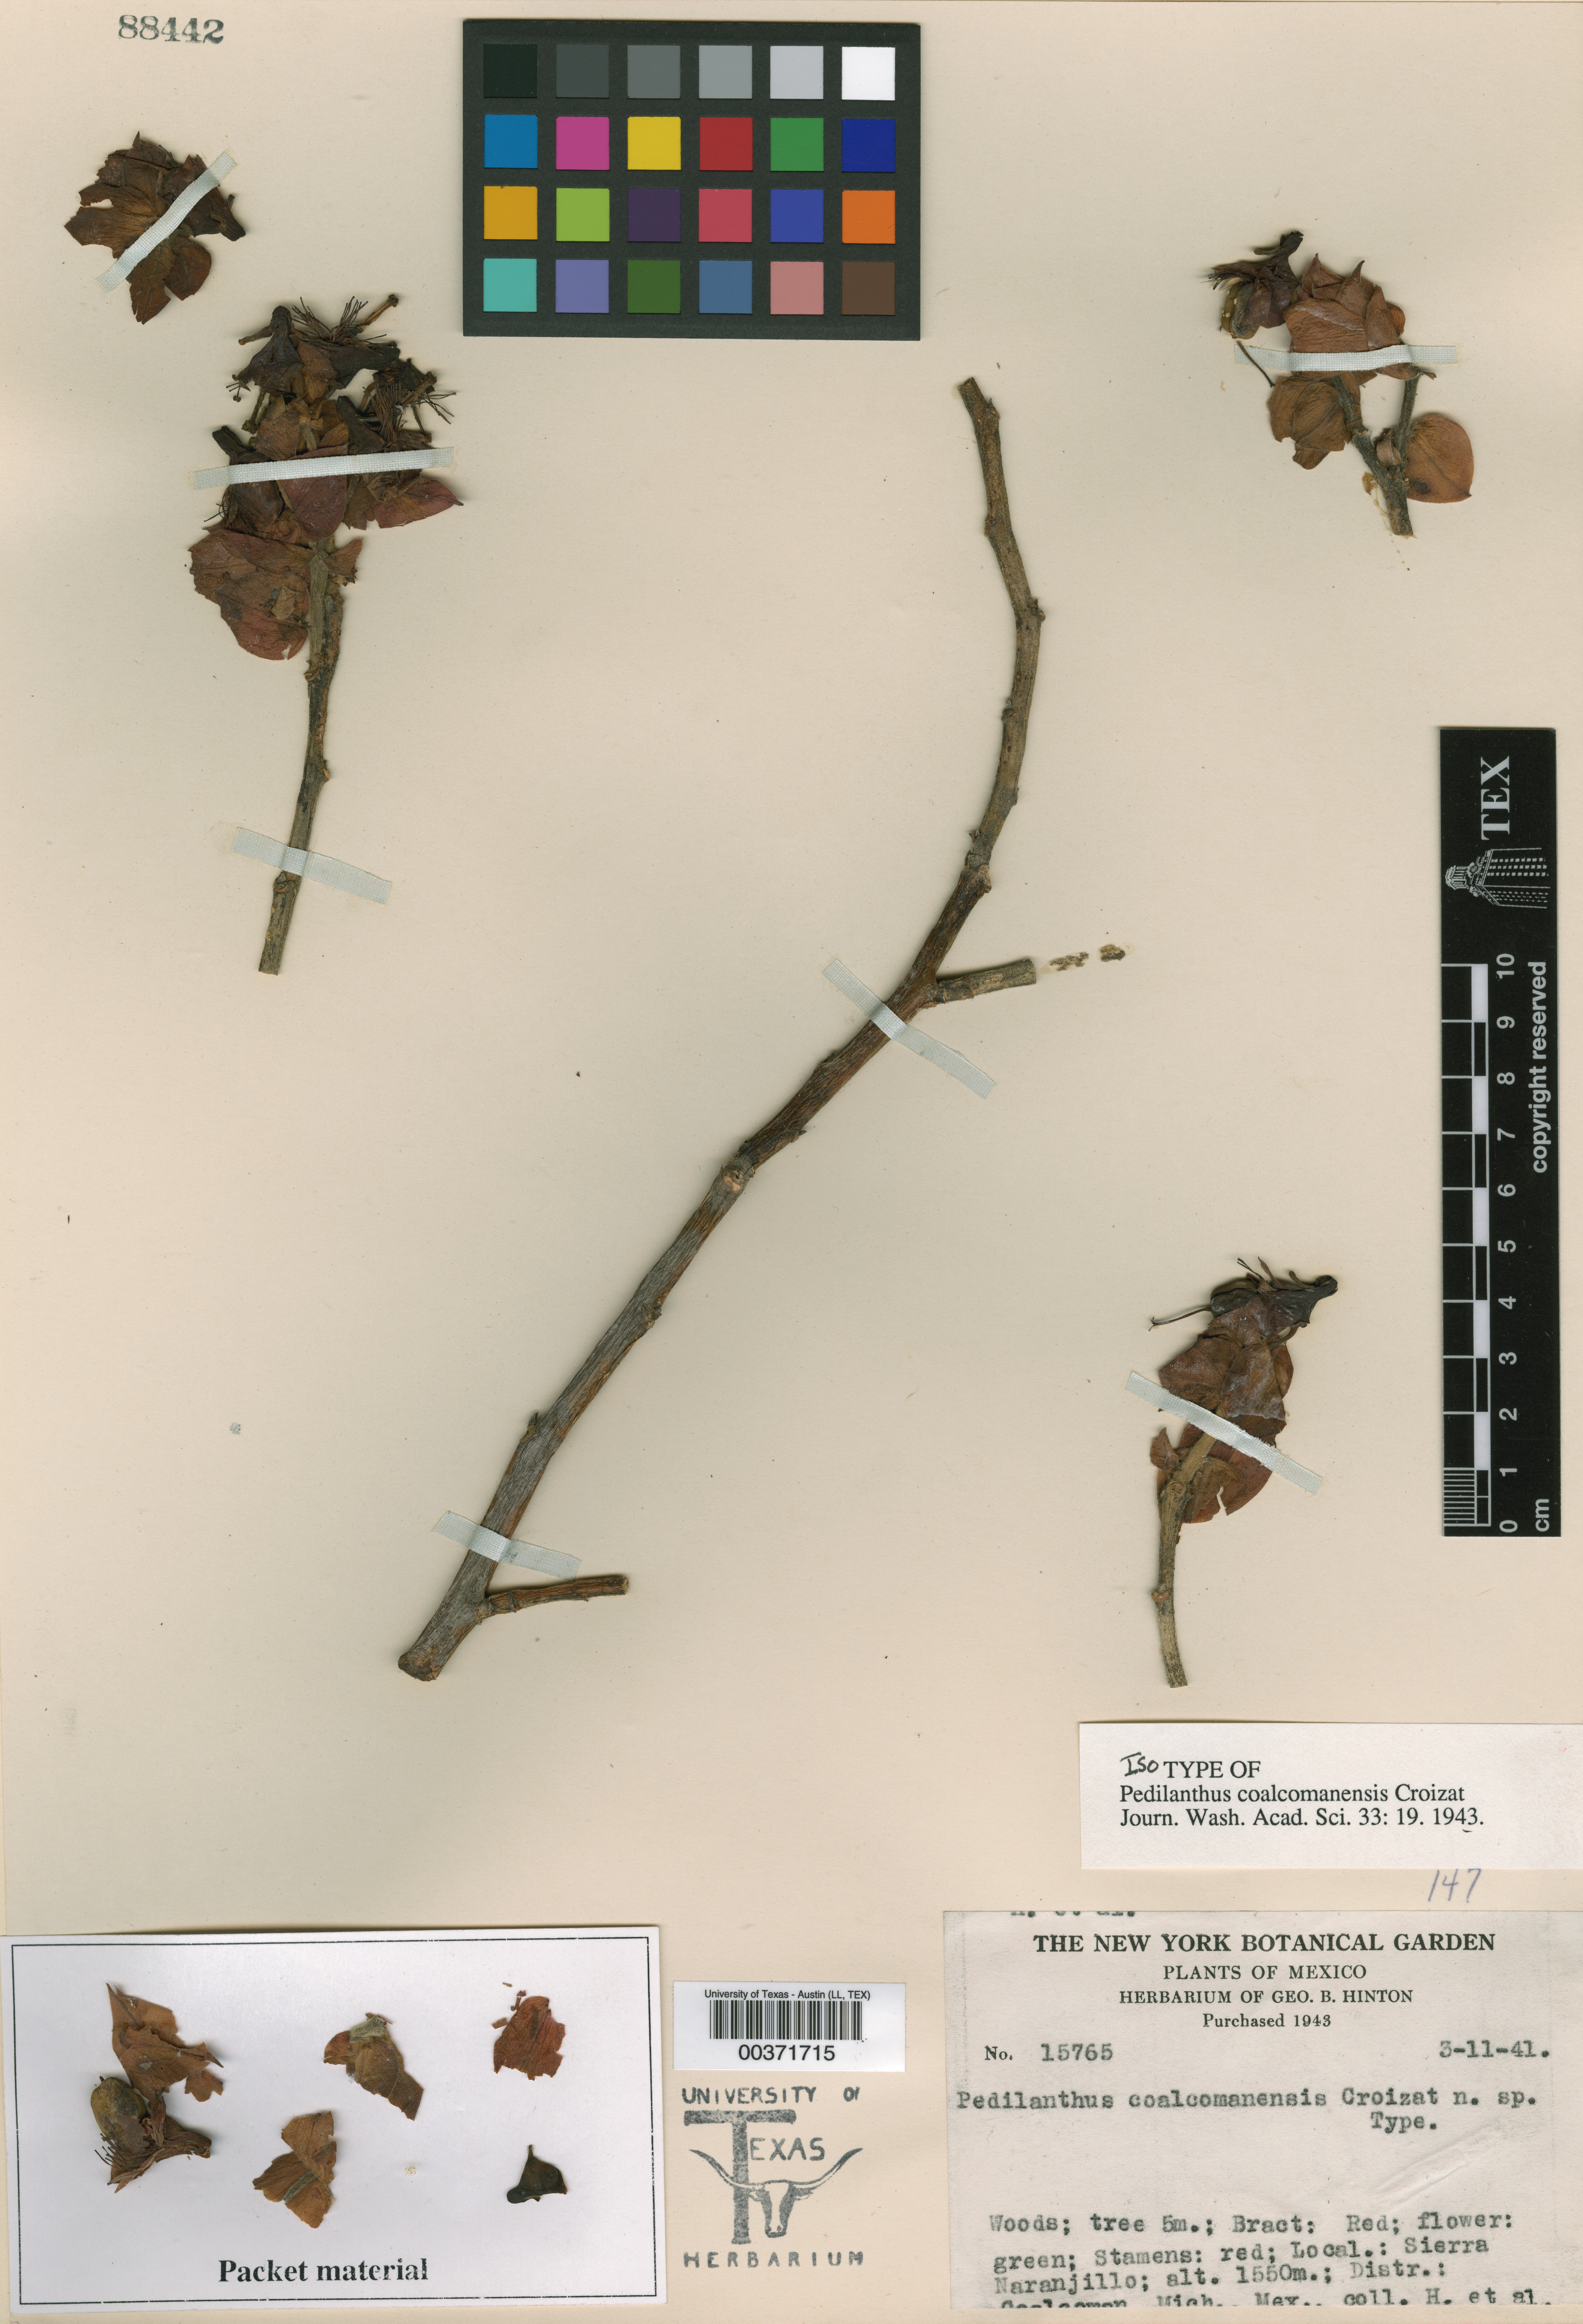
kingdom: Plantae
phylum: Tracheophyta
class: Magnoliopsida
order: Malpighiales
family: Euphorbiaceae
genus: Euphorbia
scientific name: Euphorbia coalcomanensis
